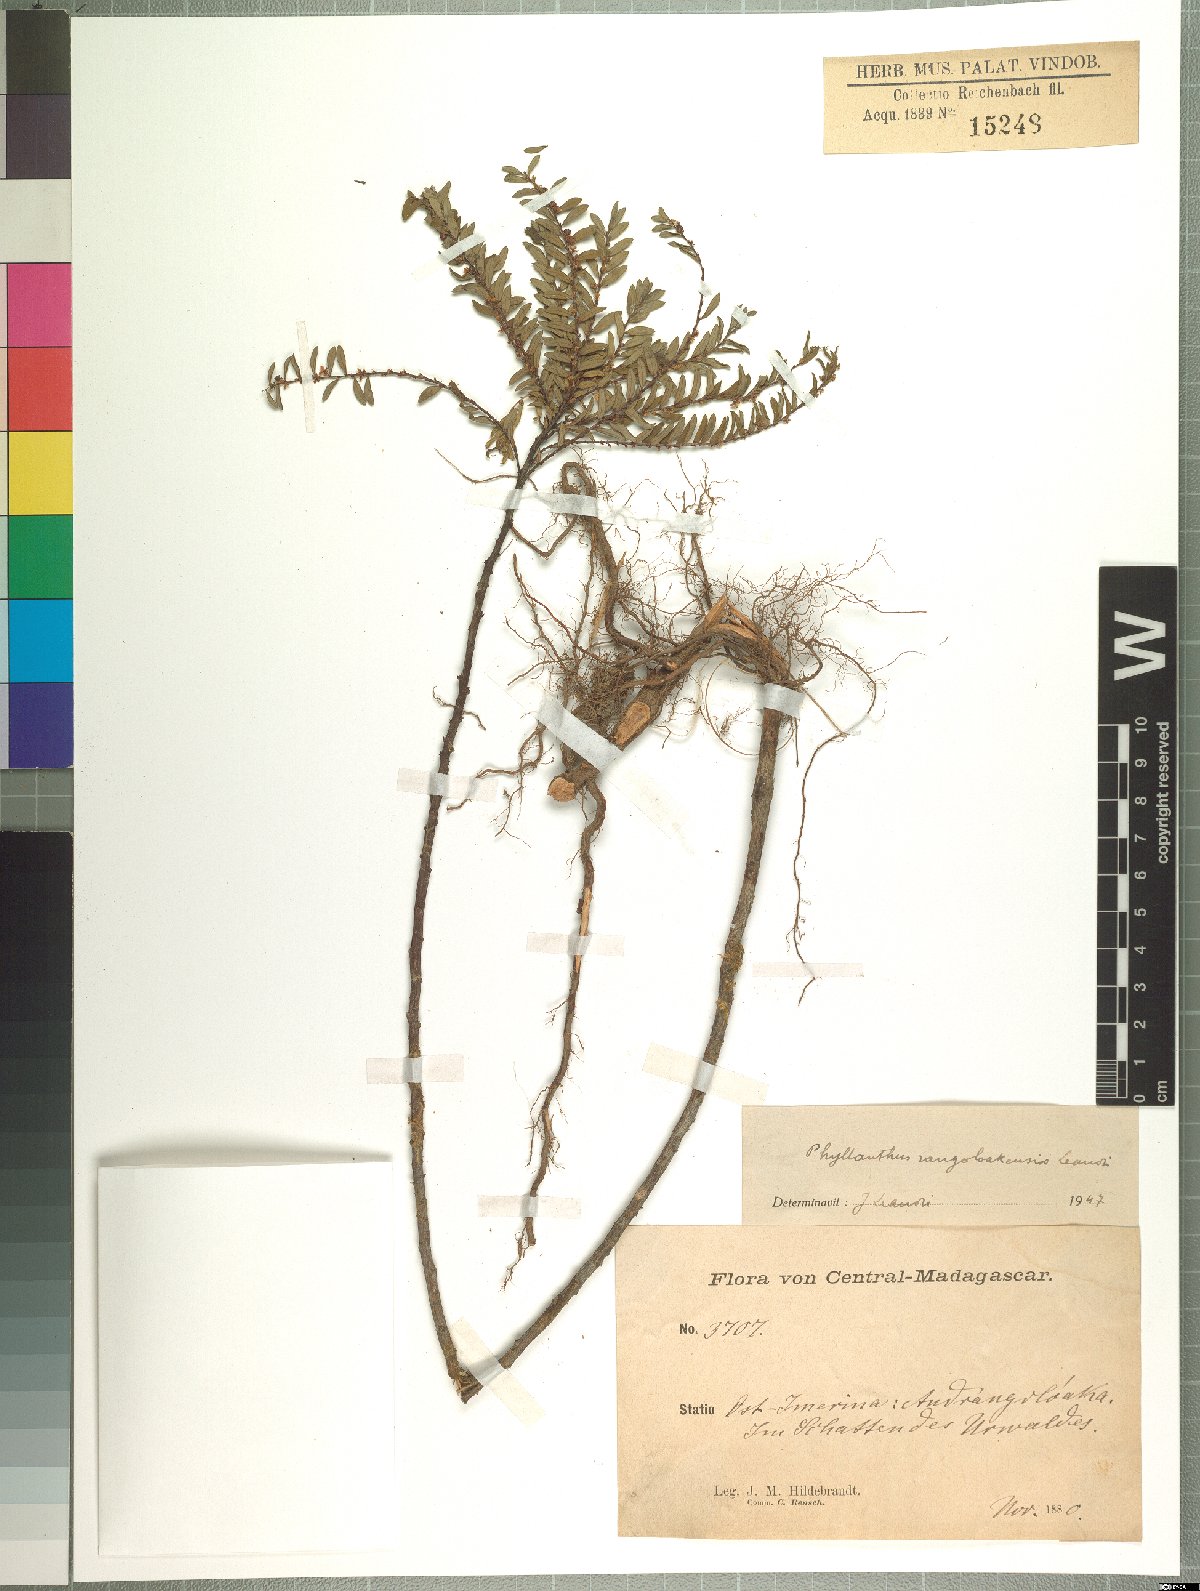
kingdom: Plantae
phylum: Tracheophyta
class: Magnoliopsida
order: Malpighiales
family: Phyllanthaceae
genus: Phyllanthus
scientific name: Phyllanthus rangoloakensis
